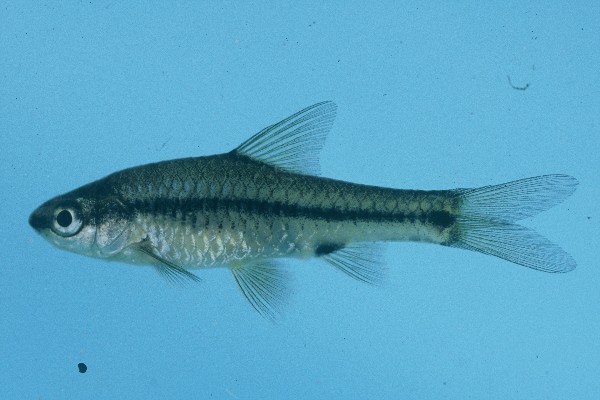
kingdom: Animalia
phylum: Chordata
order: Cypriniformes
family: Cyprinidae
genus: Enteromius
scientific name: Enteromius macrotaenia
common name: Broadband barb
